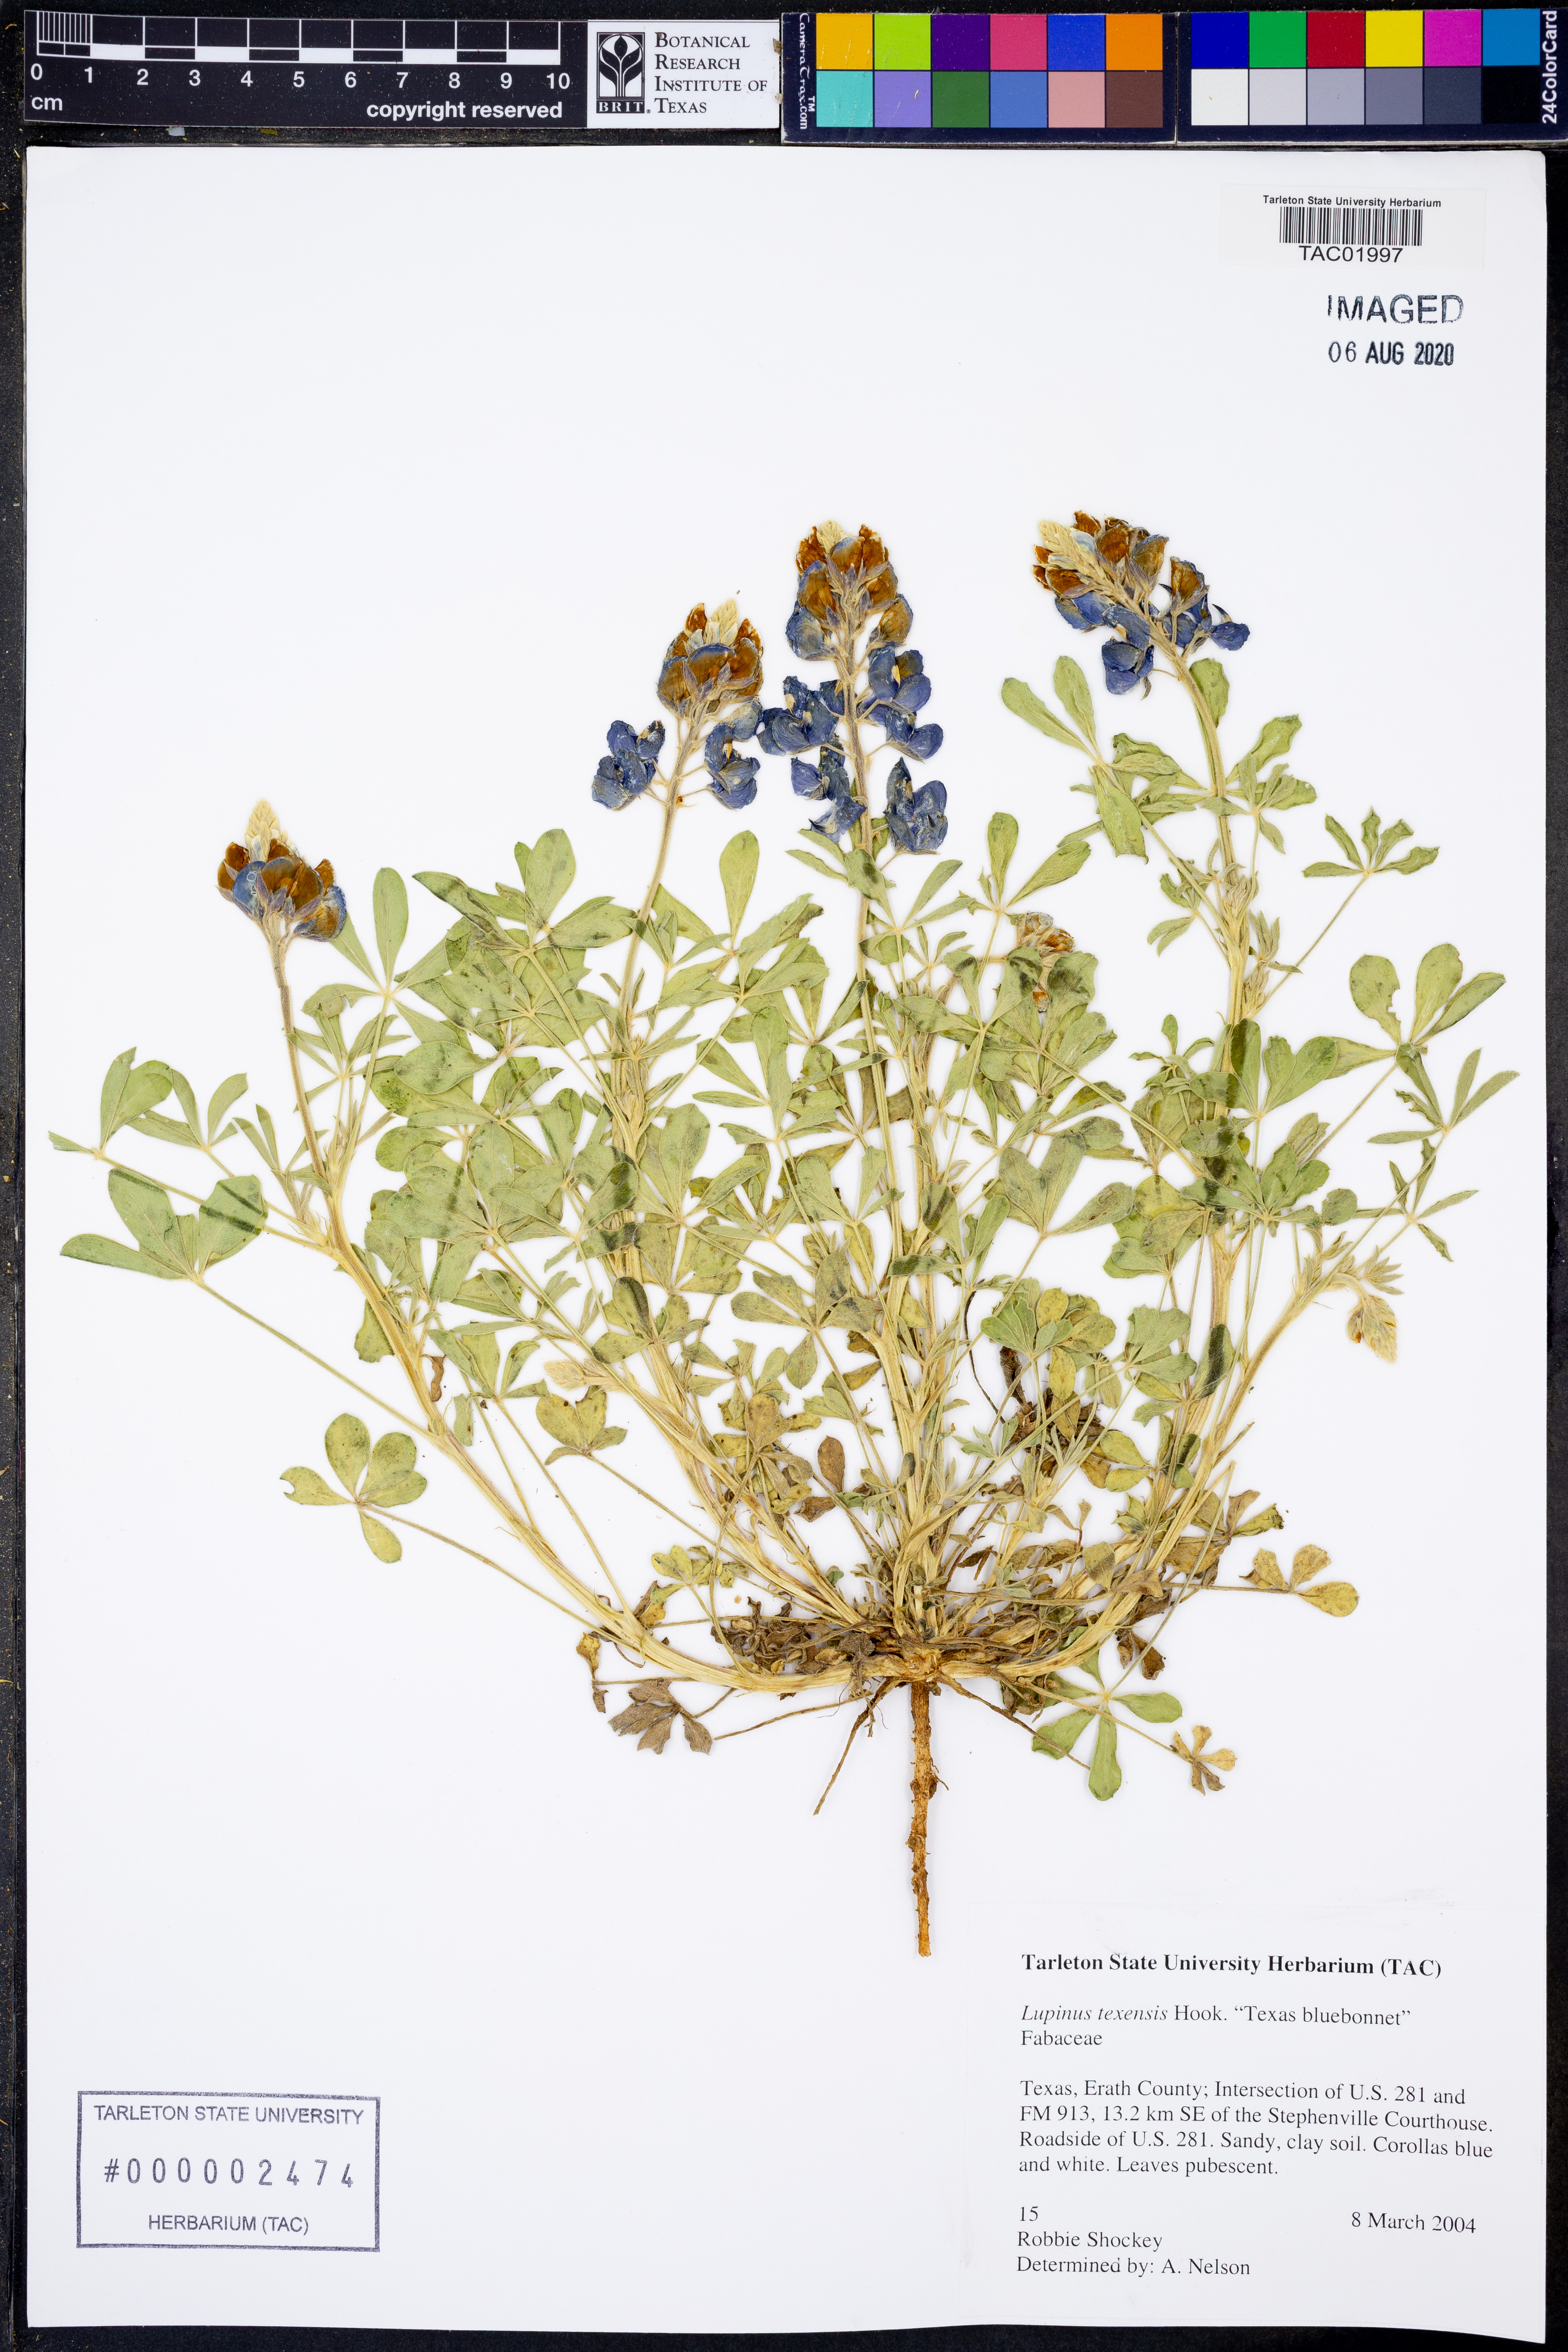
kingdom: Plantae
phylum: Tracheophyta
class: Magnoliopsida
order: Fabales
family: Fabaceae
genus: Lupinus
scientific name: Lupinus texensis
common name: Texas bluebonnet
